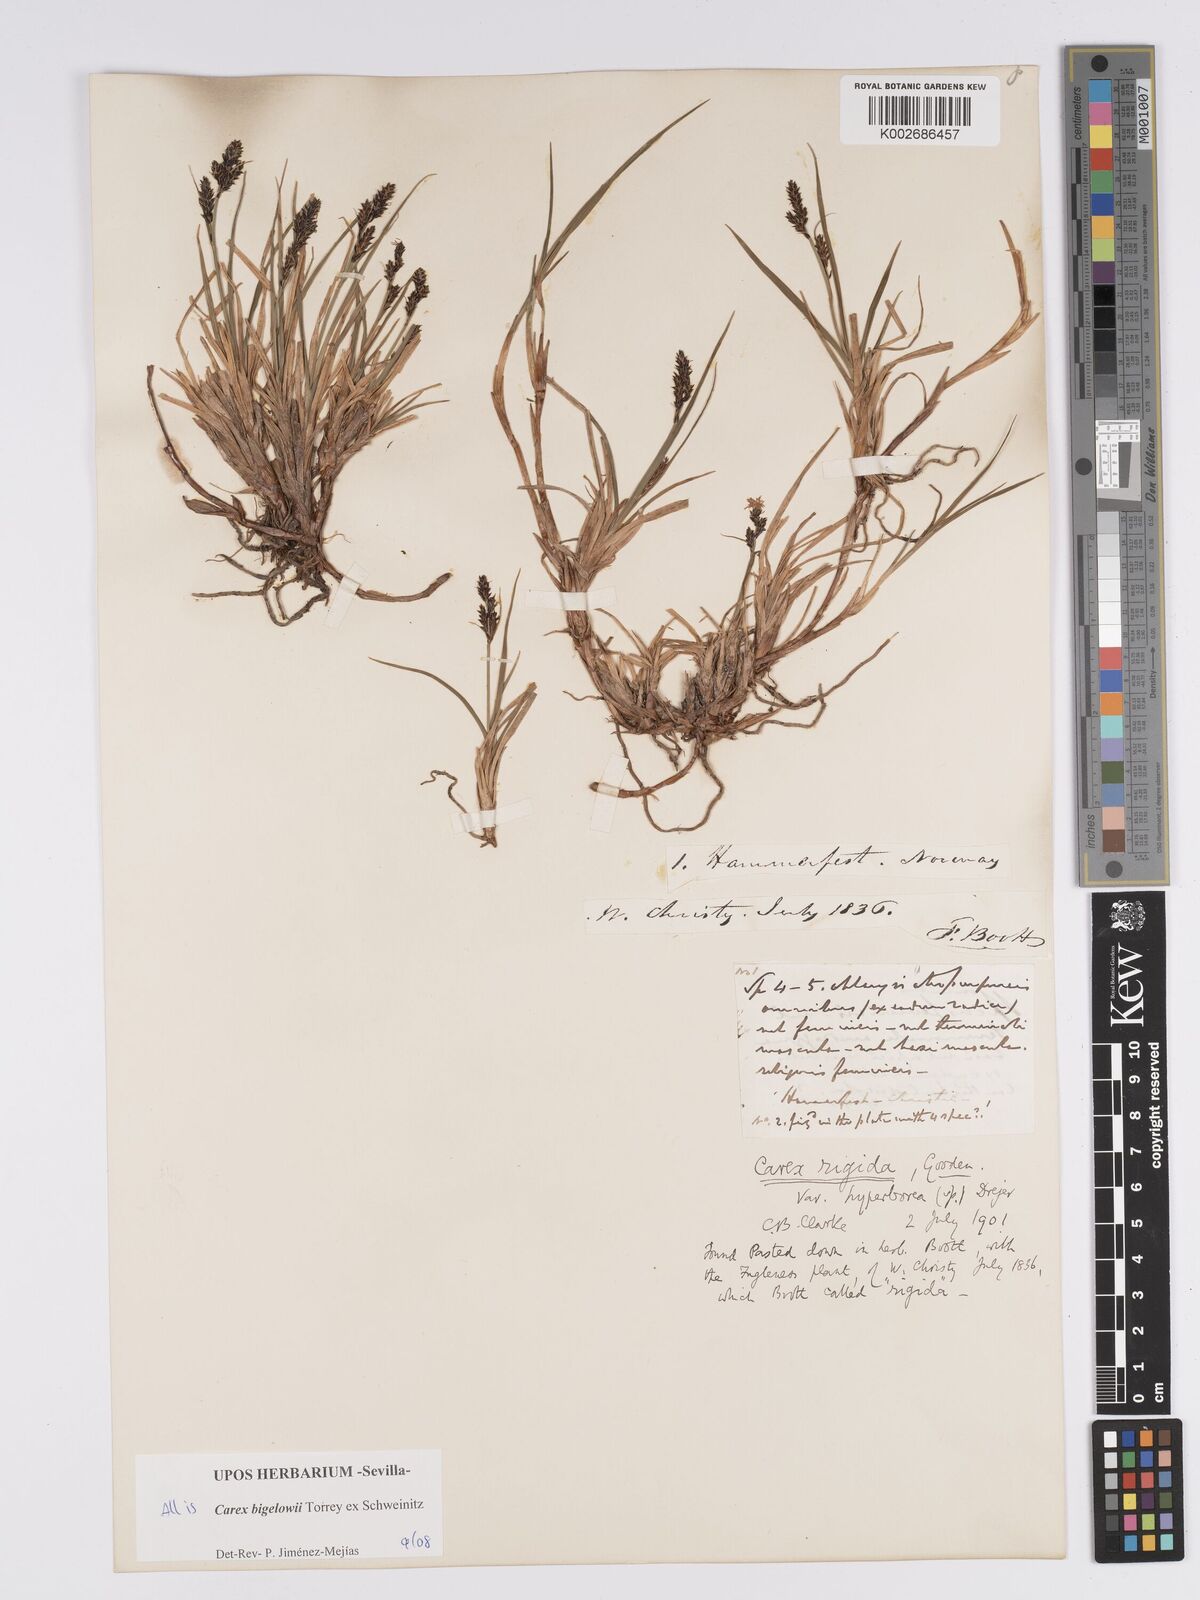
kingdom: Plantae
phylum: Tracheophyta
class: Liliopsida
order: Poales
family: Cyperaceae
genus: Carex
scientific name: Carex bigelowii
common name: Stiff sedge
